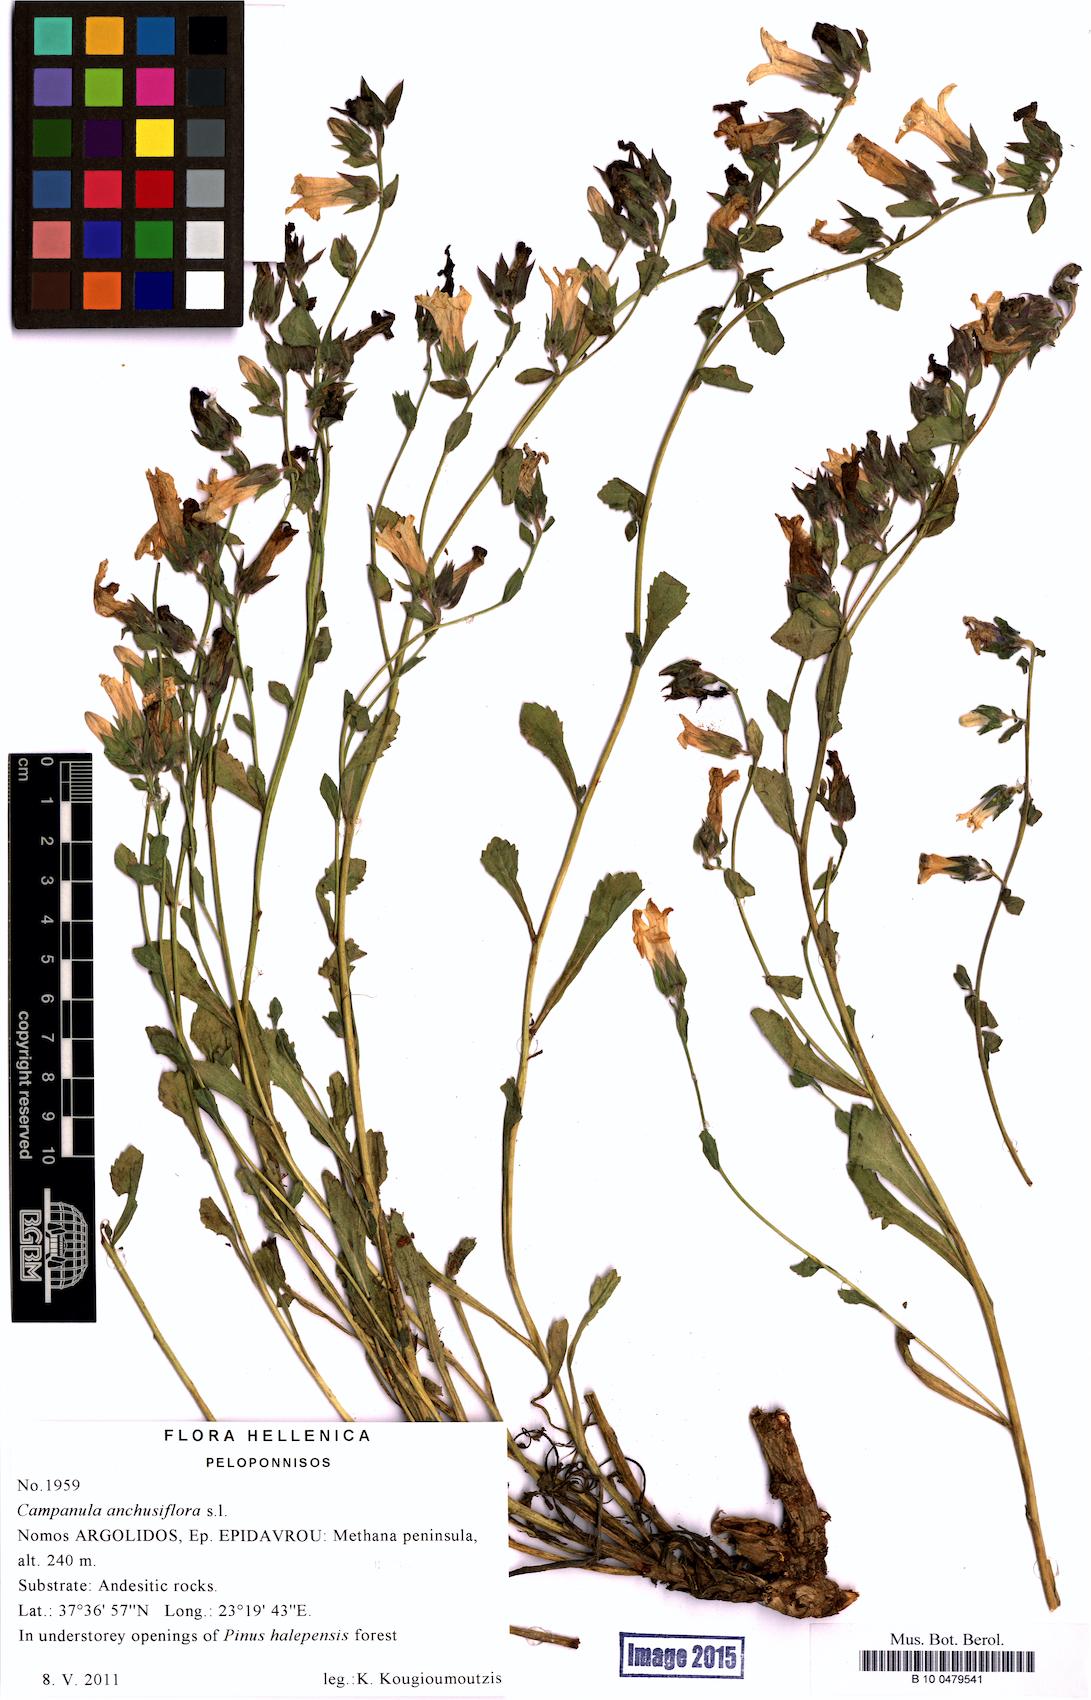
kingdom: Plantae
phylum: Tracheophyta
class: Magnoliopsida
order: Asterales
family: Campanulaceae
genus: Campanula
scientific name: Campanula anchusiflora
